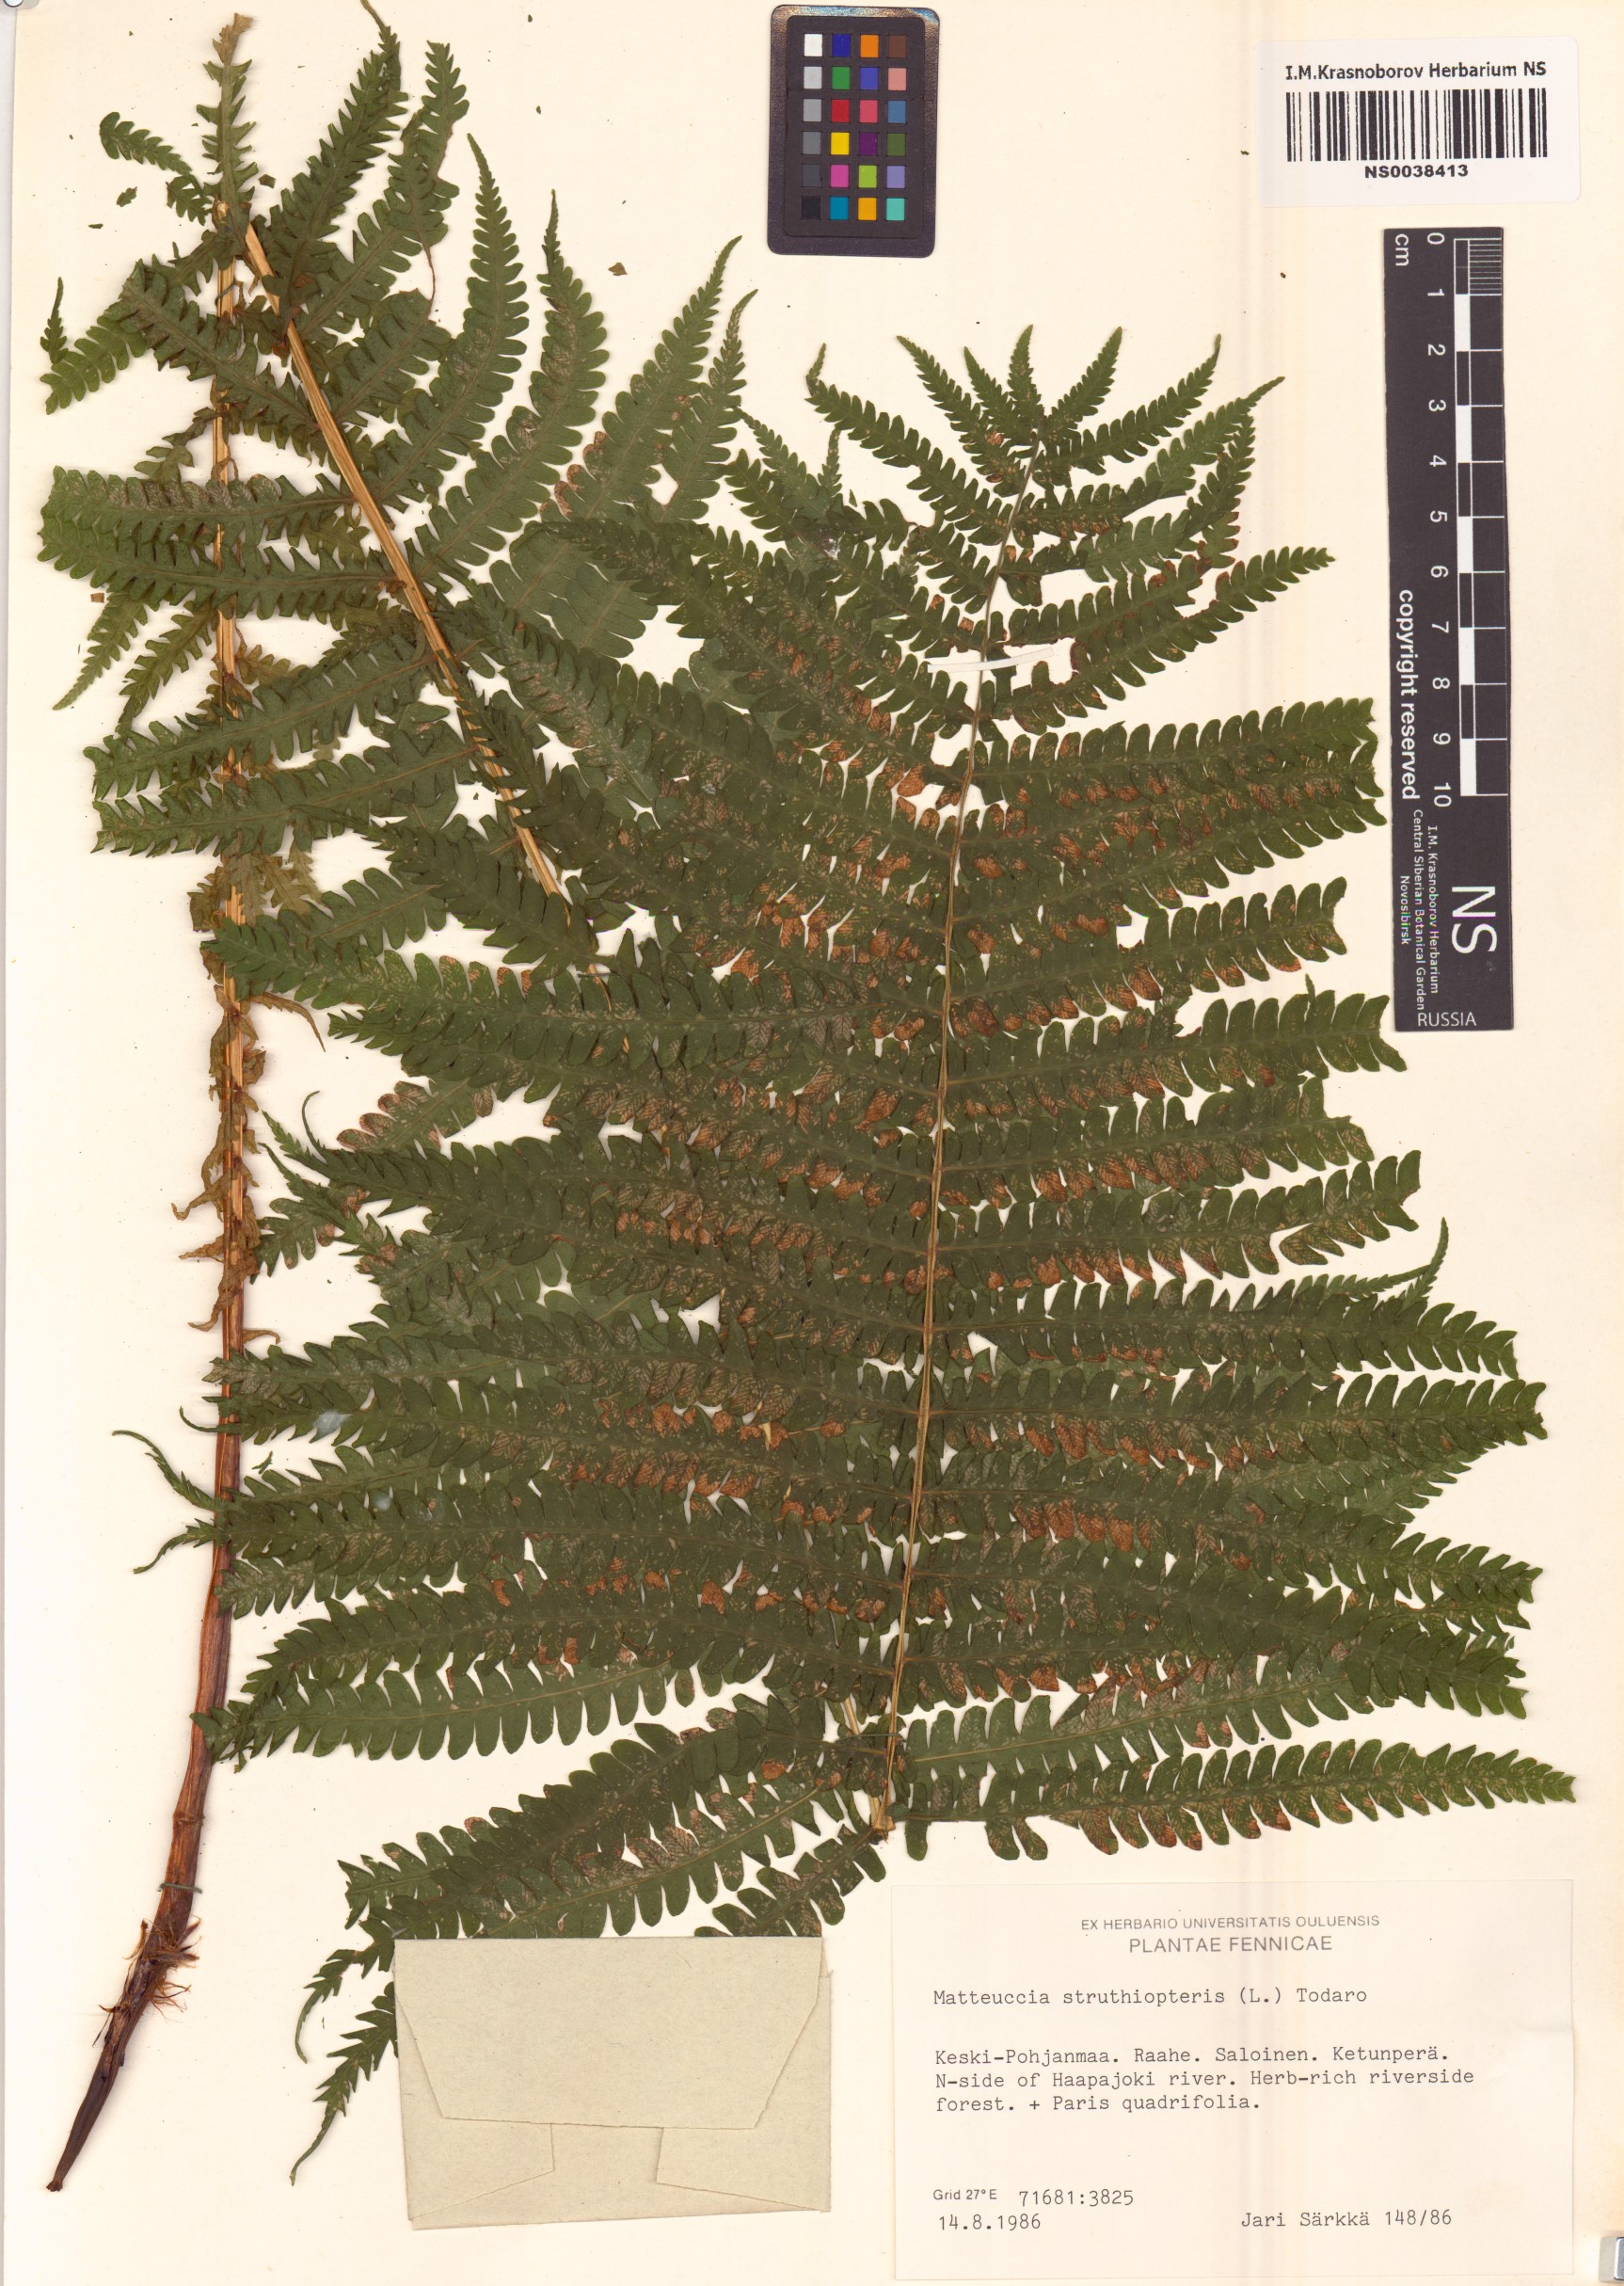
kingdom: Plantae
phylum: Tracheophyta
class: Polypodiopsida
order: Polypodiales
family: Onocleaceae
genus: Matteuccia
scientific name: Matteuccia struthiopteris
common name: Ostrich fern
